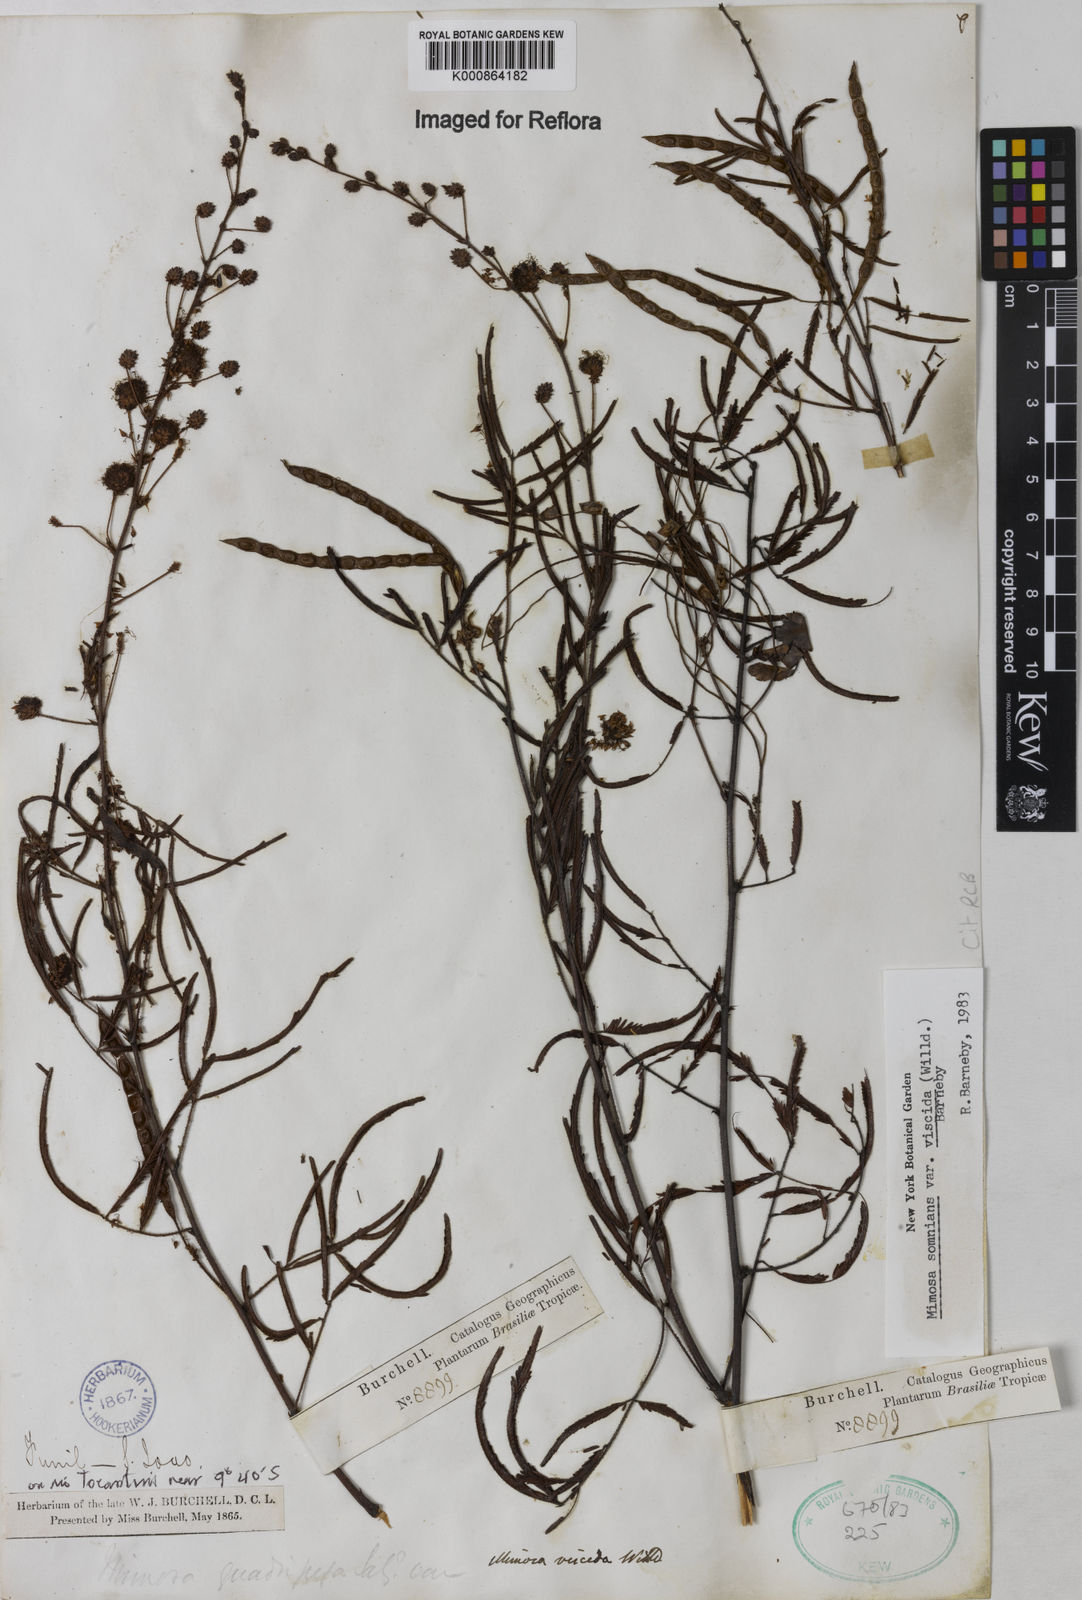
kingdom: Plantae
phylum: Tracheophyta
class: Magnoliopsida
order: Fabales
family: Fabaceae
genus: Mimosa
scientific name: Mimosa somnians
